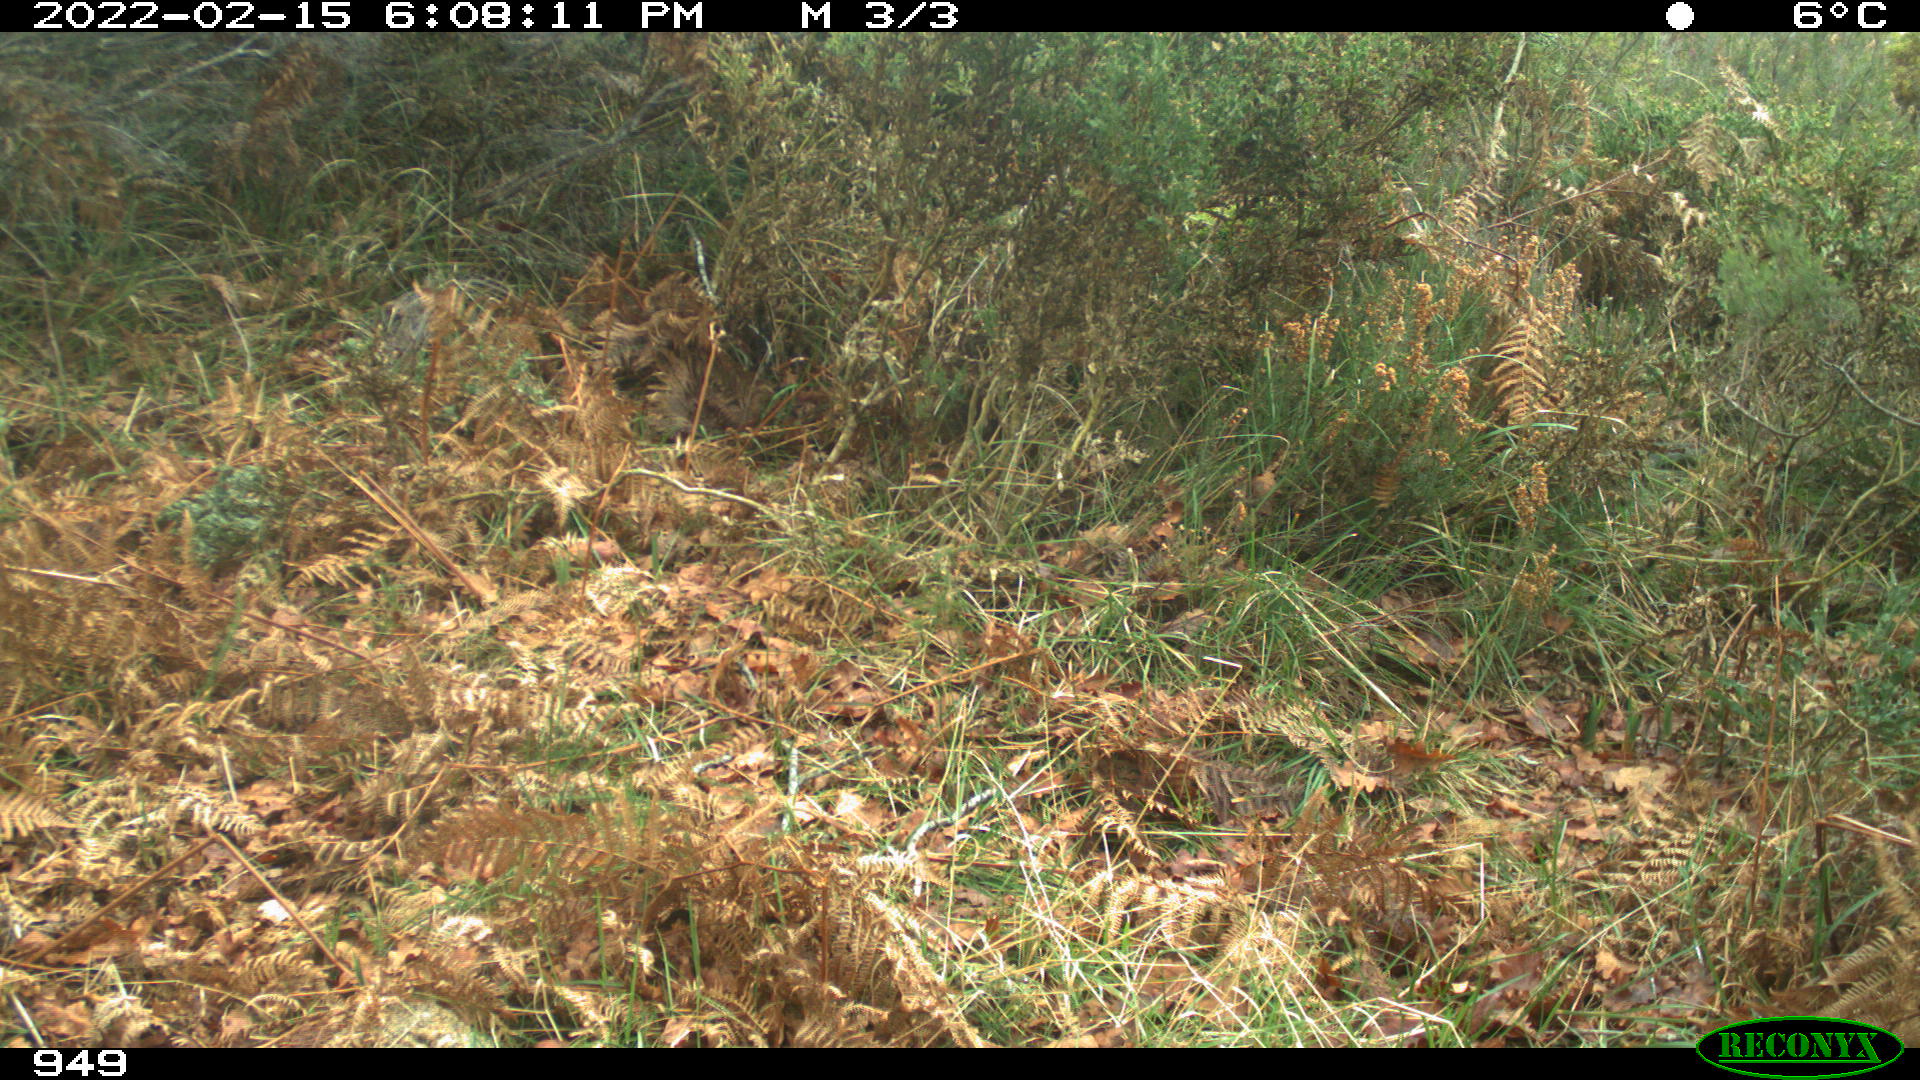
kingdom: Animalia
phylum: Chordata
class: Mammalia
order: Artiodactyla
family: Suidae
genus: Sus
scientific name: Sus scrofa
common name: Wild boar
